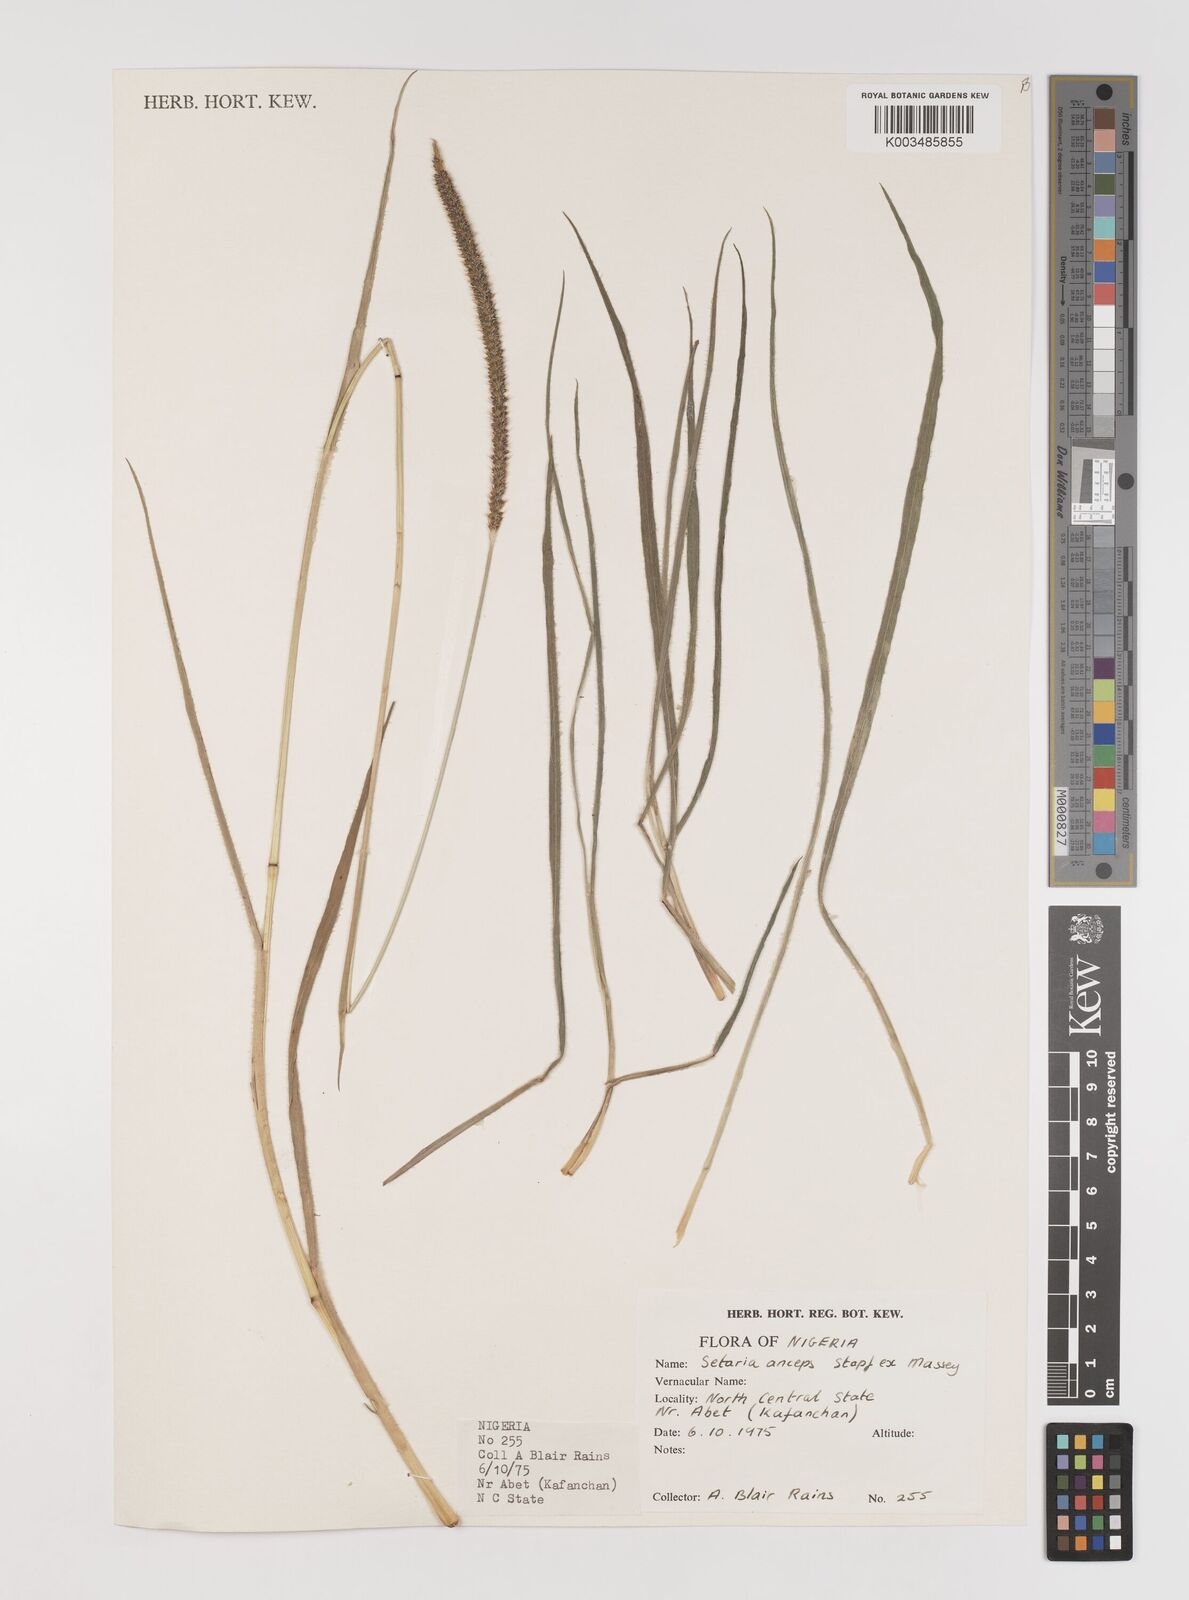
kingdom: Plantae
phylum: Tracheophyta
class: Liliopsida
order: Poales
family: Poaceae
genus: Setaria
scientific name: Setaria sphacelata
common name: African bristlegrass
